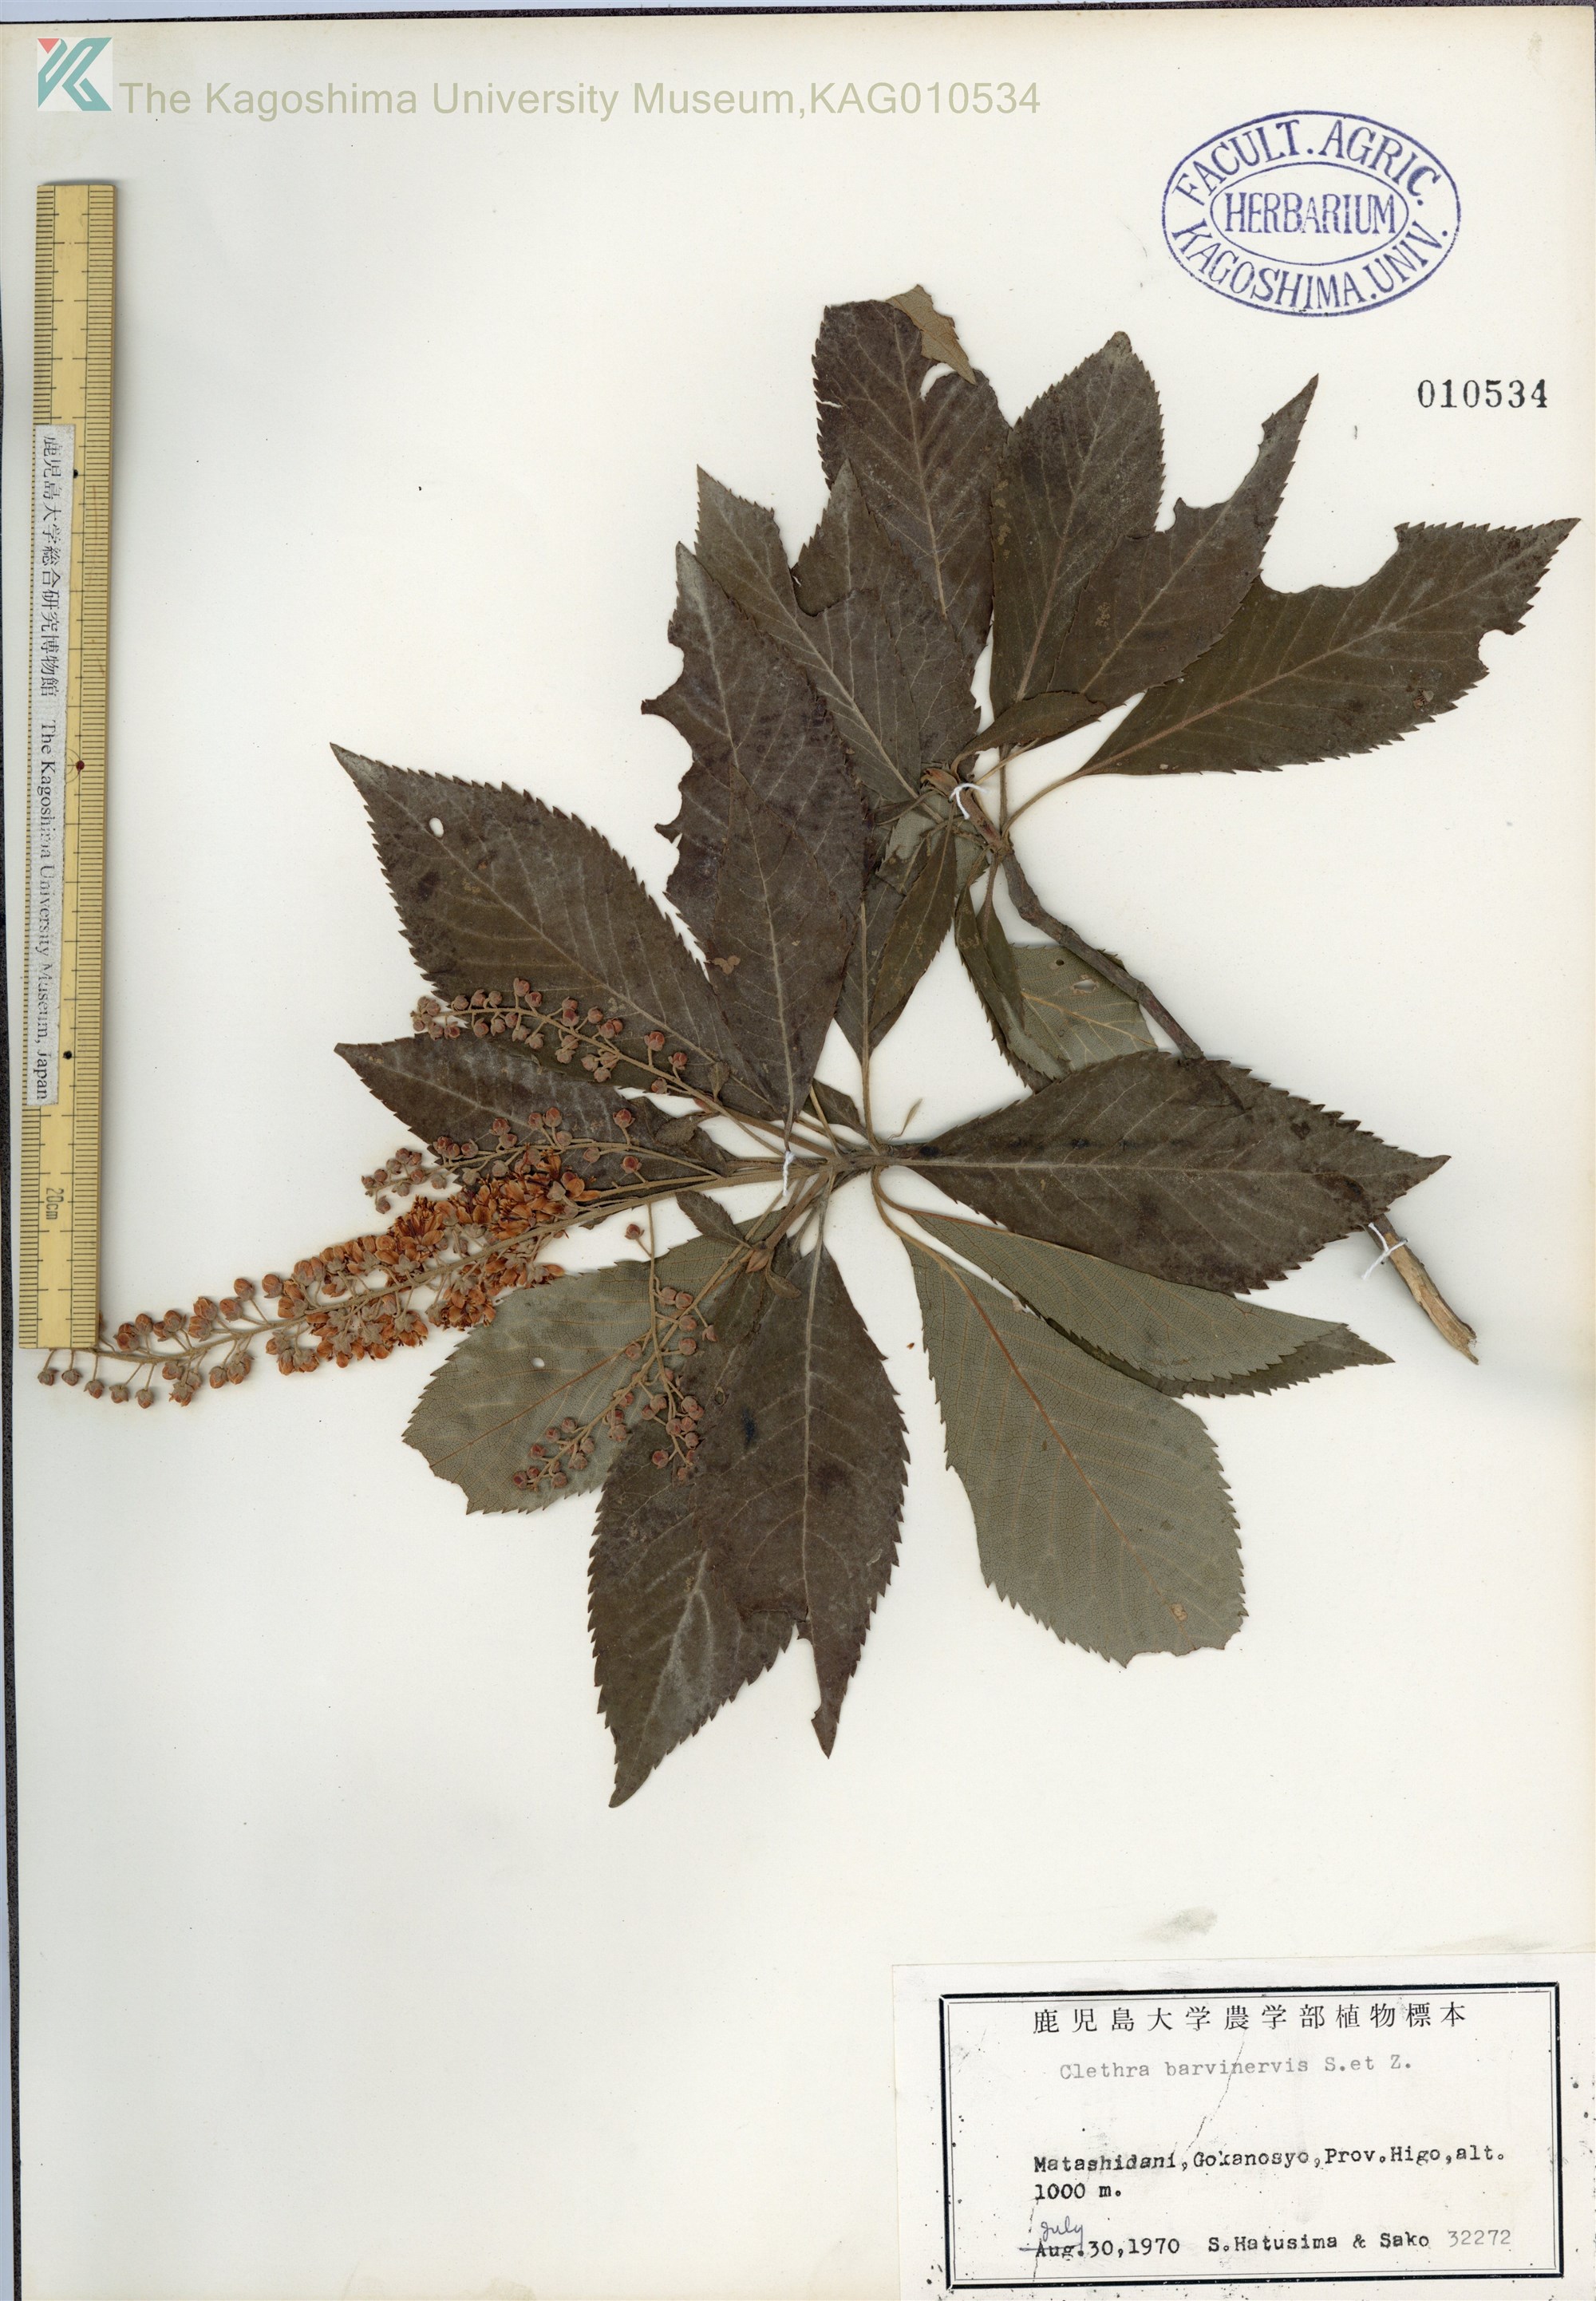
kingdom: Plantae
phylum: Tracheophyta
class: Magnoliopsida
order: Ericales
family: Clethraceae
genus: Clethra
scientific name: Clethra barbinervis
